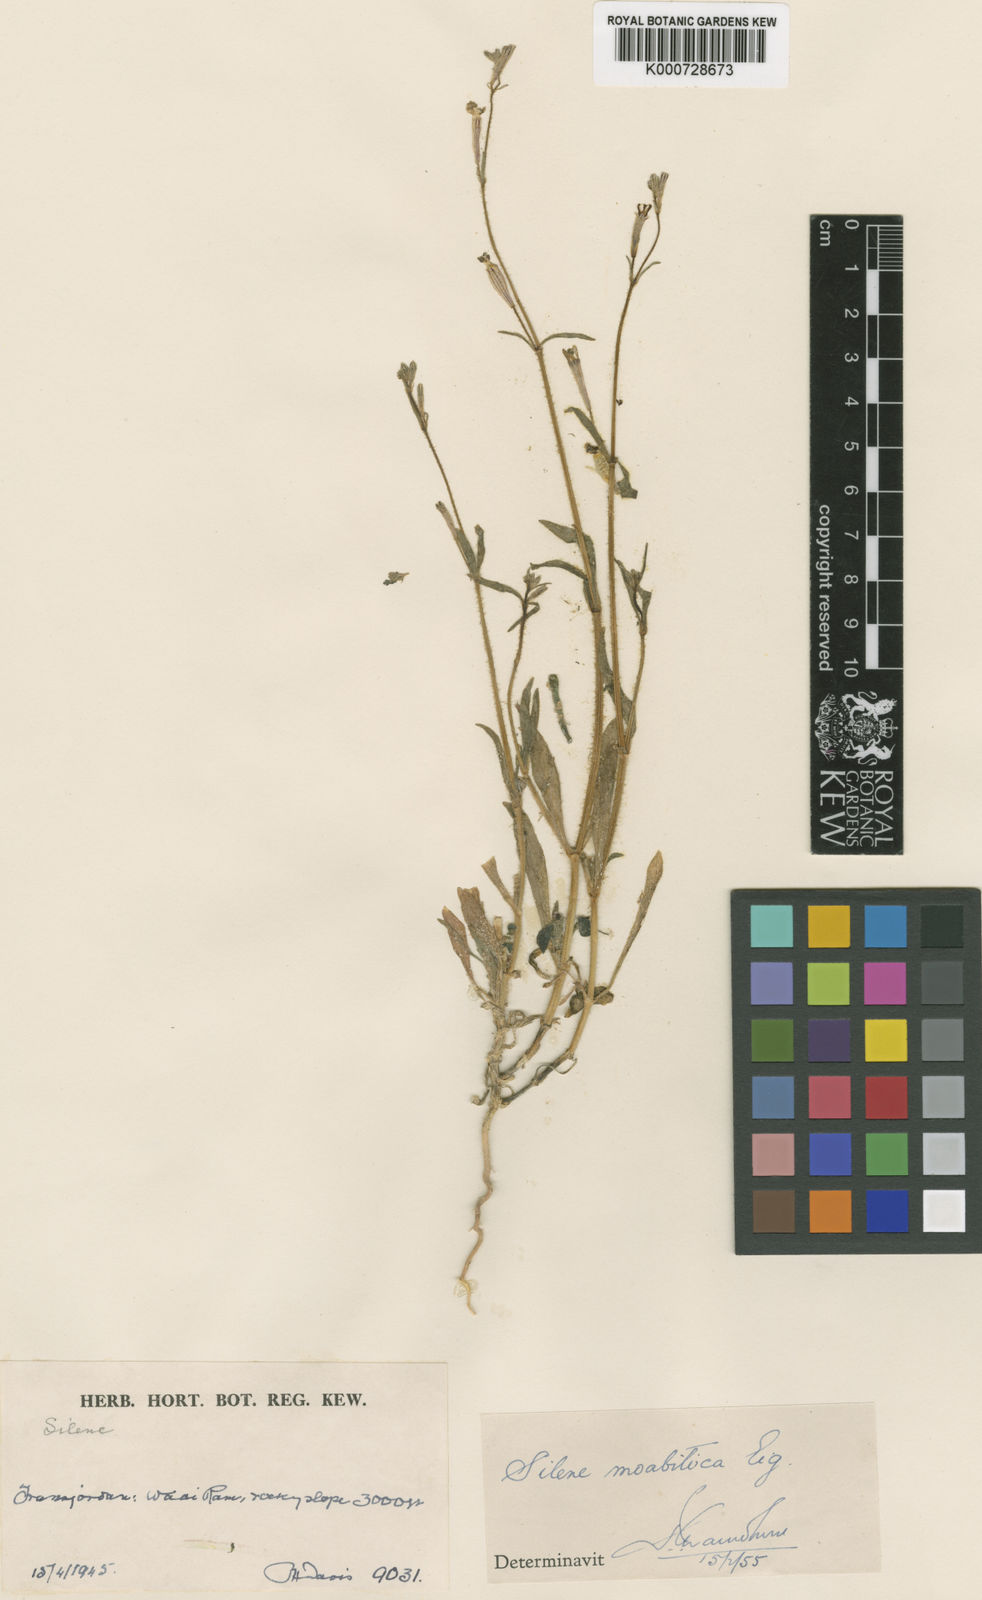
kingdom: Plantae
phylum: Tracheophyta
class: Magnoliopsida
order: Caryophyllales
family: Caryophyllaceae
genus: Silene
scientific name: Silene moabitica
